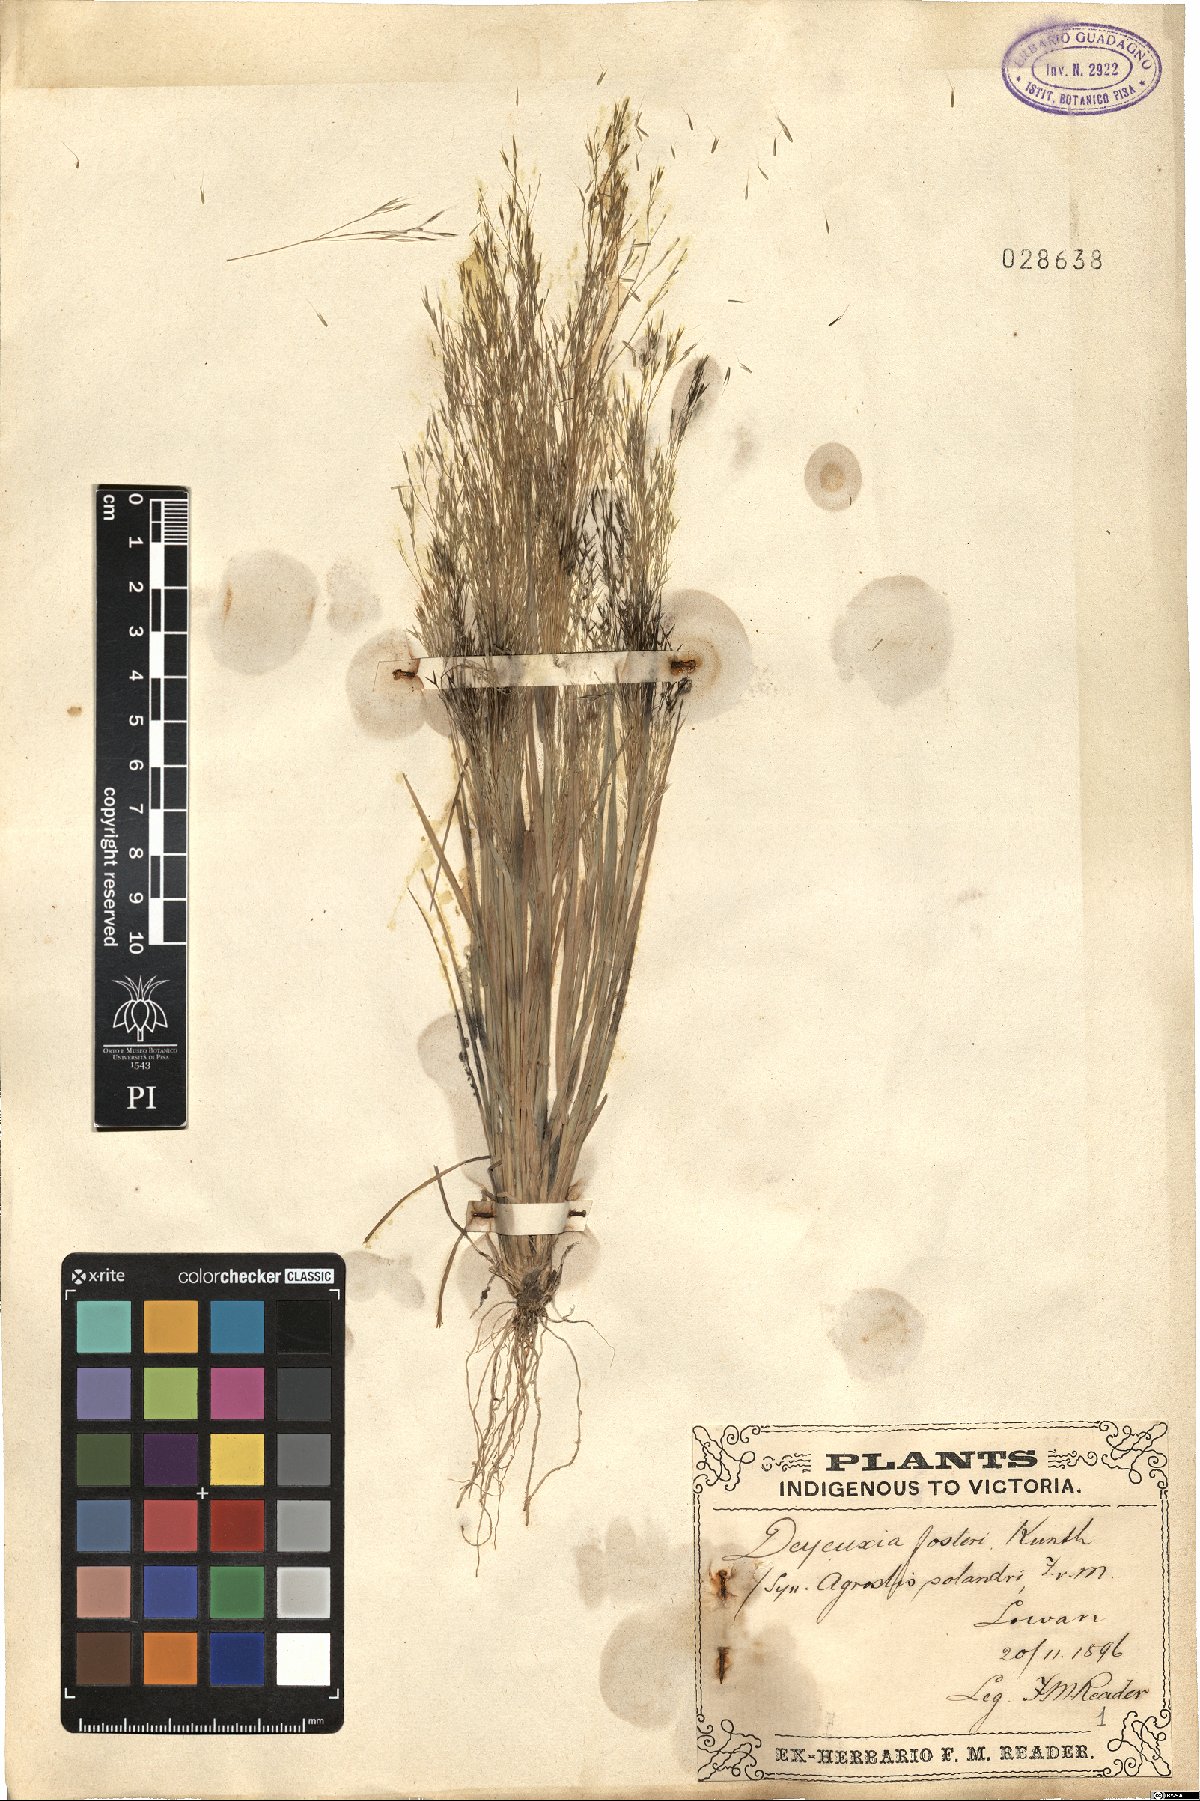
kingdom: Plantae
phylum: Tracheophyta
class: Liliopsida
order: Poales
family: Poaceae
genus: Lachnagrostis
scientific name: Lachnagrostis filiformis
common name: Bentgrass
